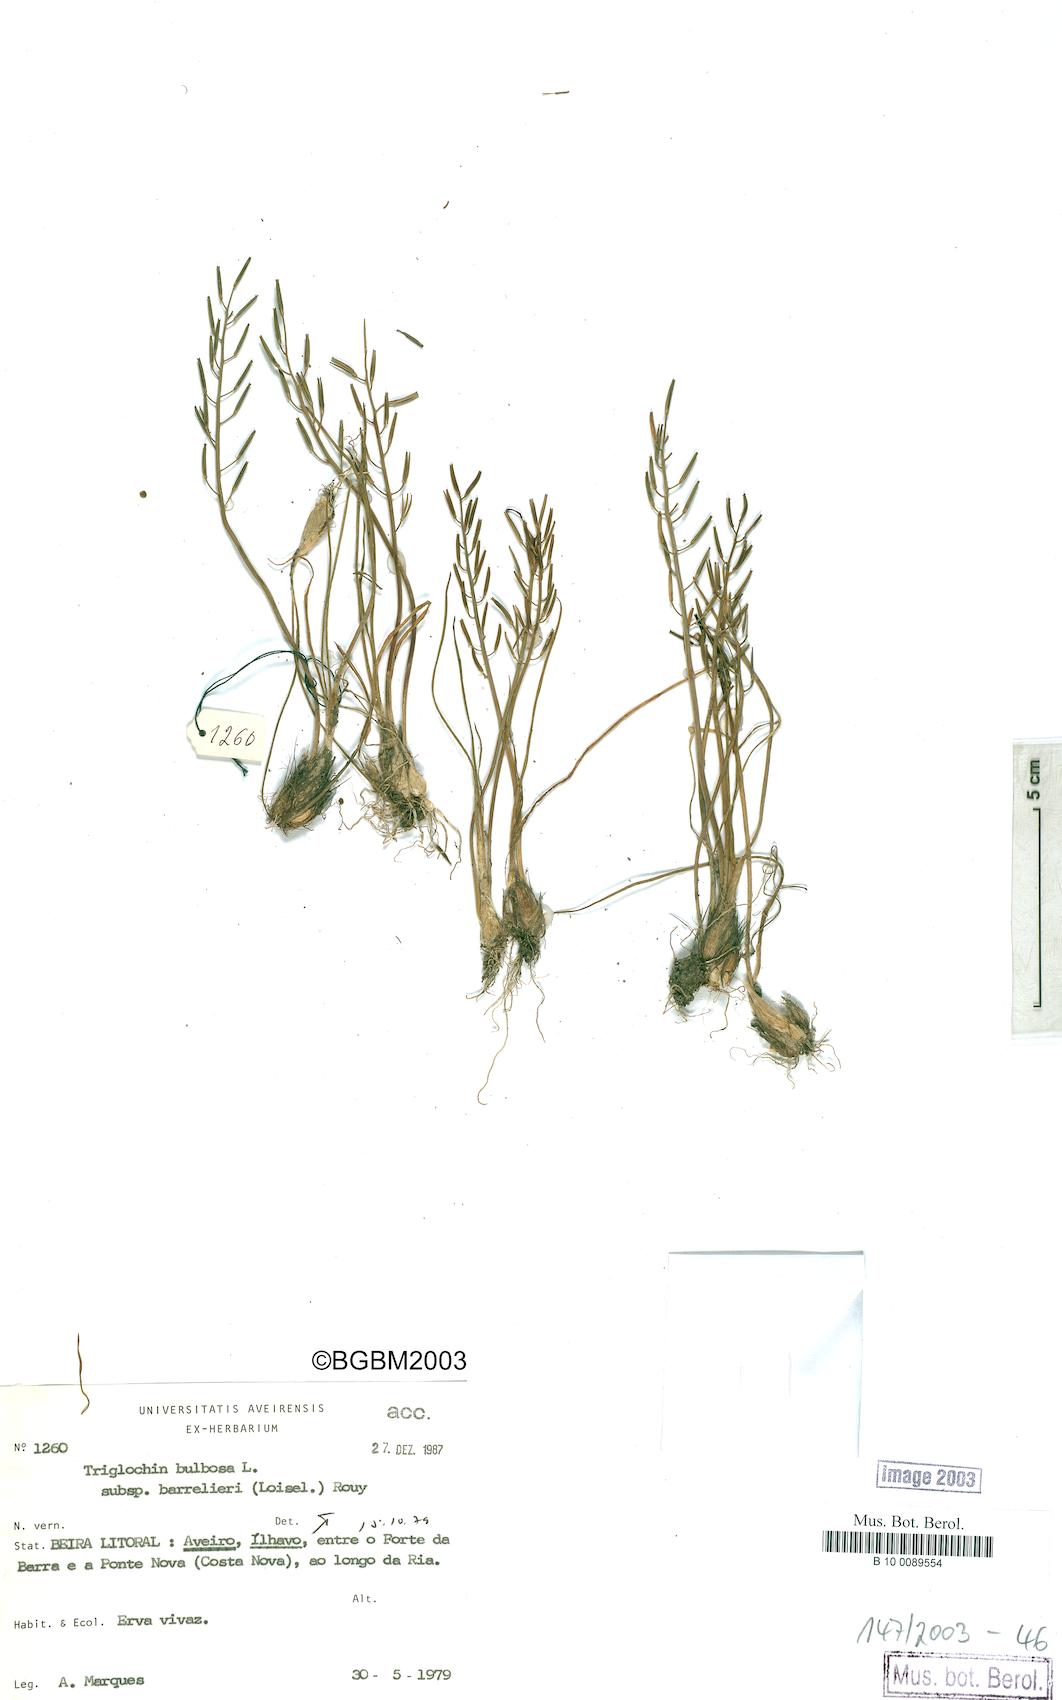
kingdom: Plantae
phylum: Tracheophyta
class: Liliopsida
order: Alismatales
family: Juncaginaceae
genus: Triglochin
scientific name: Triglochin barrelieri
